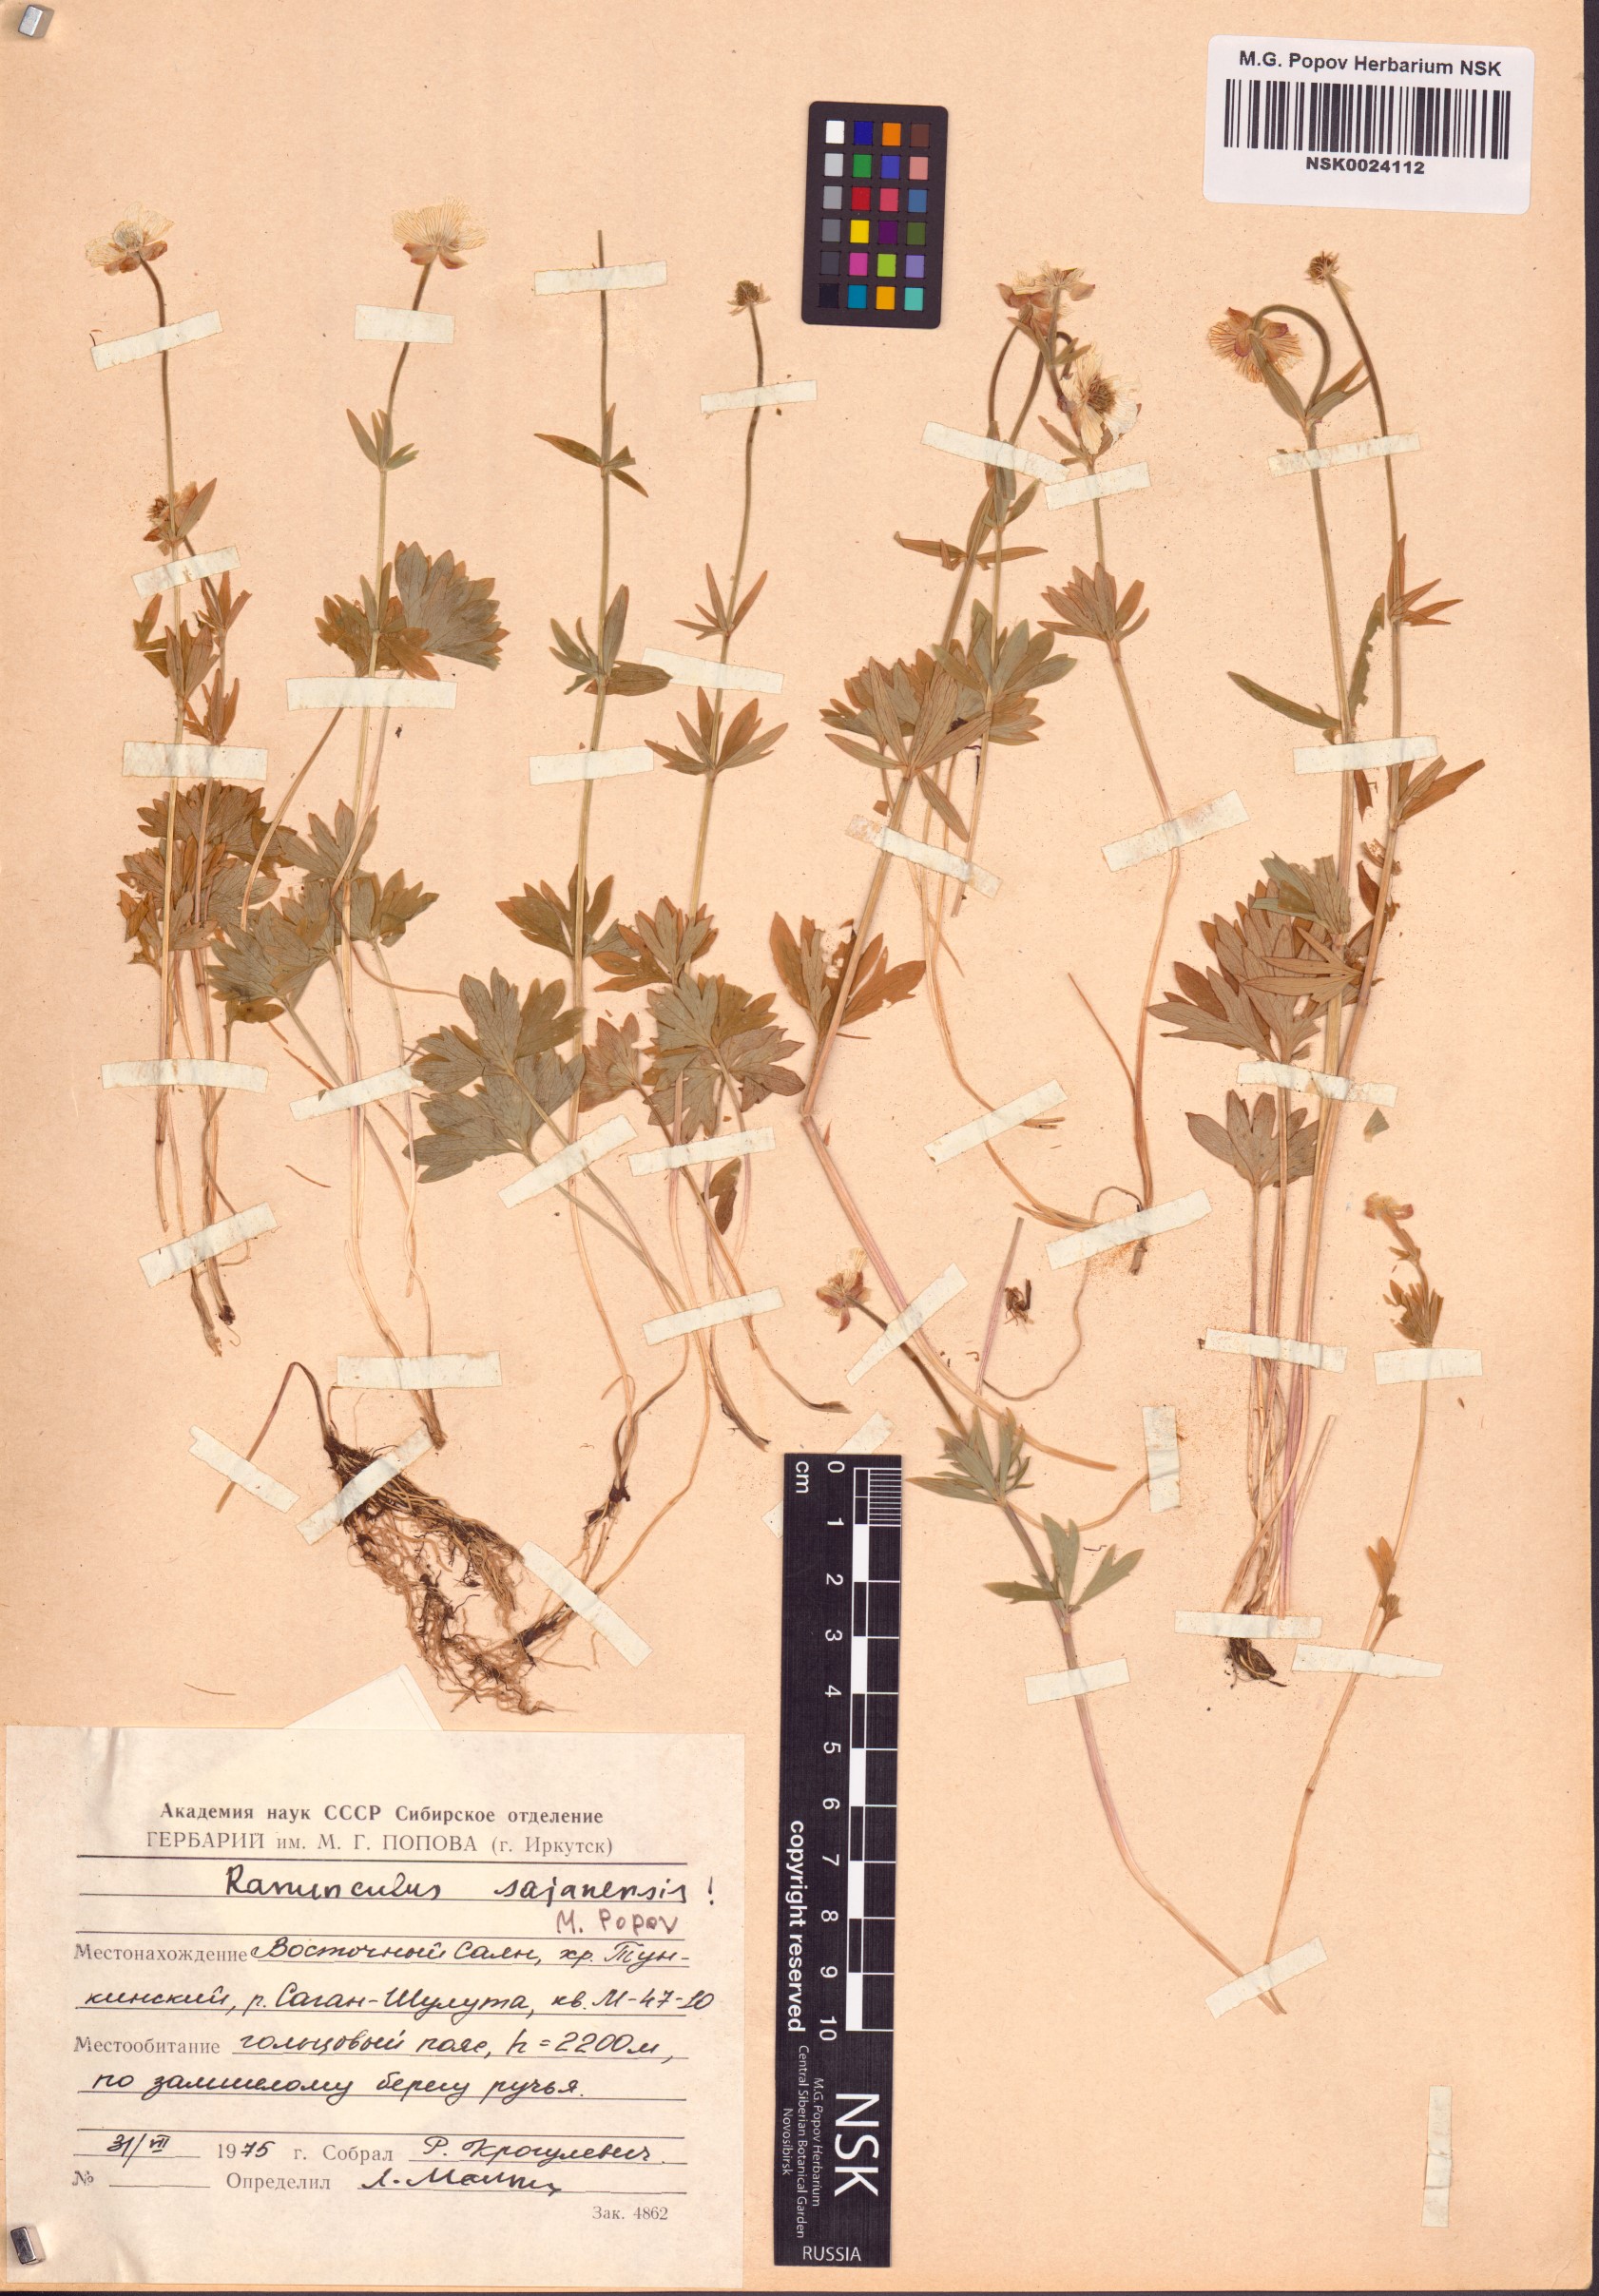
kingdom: Plantae
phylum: Tracheophyta
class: Magnoliopsida
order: Ranunculales
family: Ranunculaceae
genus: Ranunculus
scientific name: Ranunculus sajanensis
